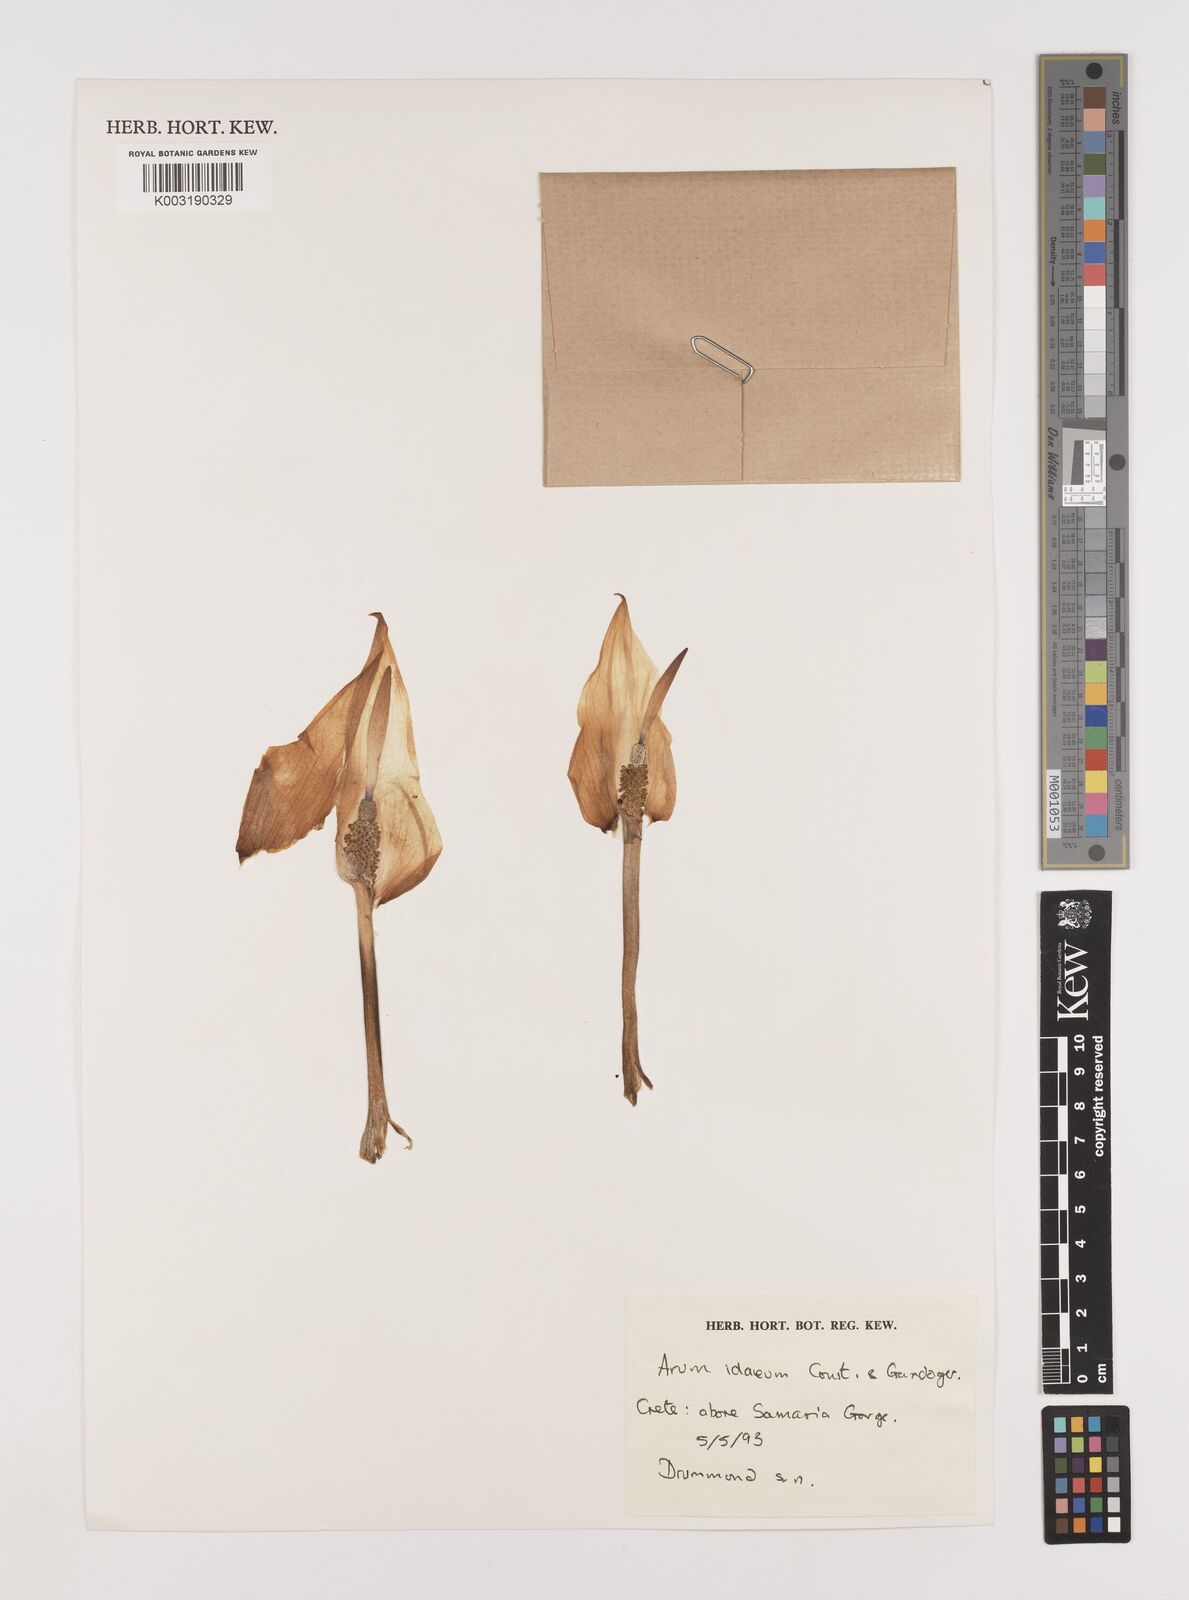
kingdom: Plantae
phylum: Tracheophyta
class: Liliopsida
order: Alismatales
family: Araceae
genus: Arum
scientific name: Arum idaeum
